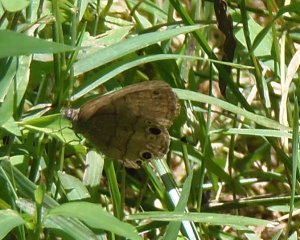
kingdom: Animalia
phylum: Arthropoda
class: Insecta
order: Lepidoptera
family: Nymphalidae
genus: Hermeuptychia
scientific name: Hermeuptychia hermes
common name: Carolina Satyr
